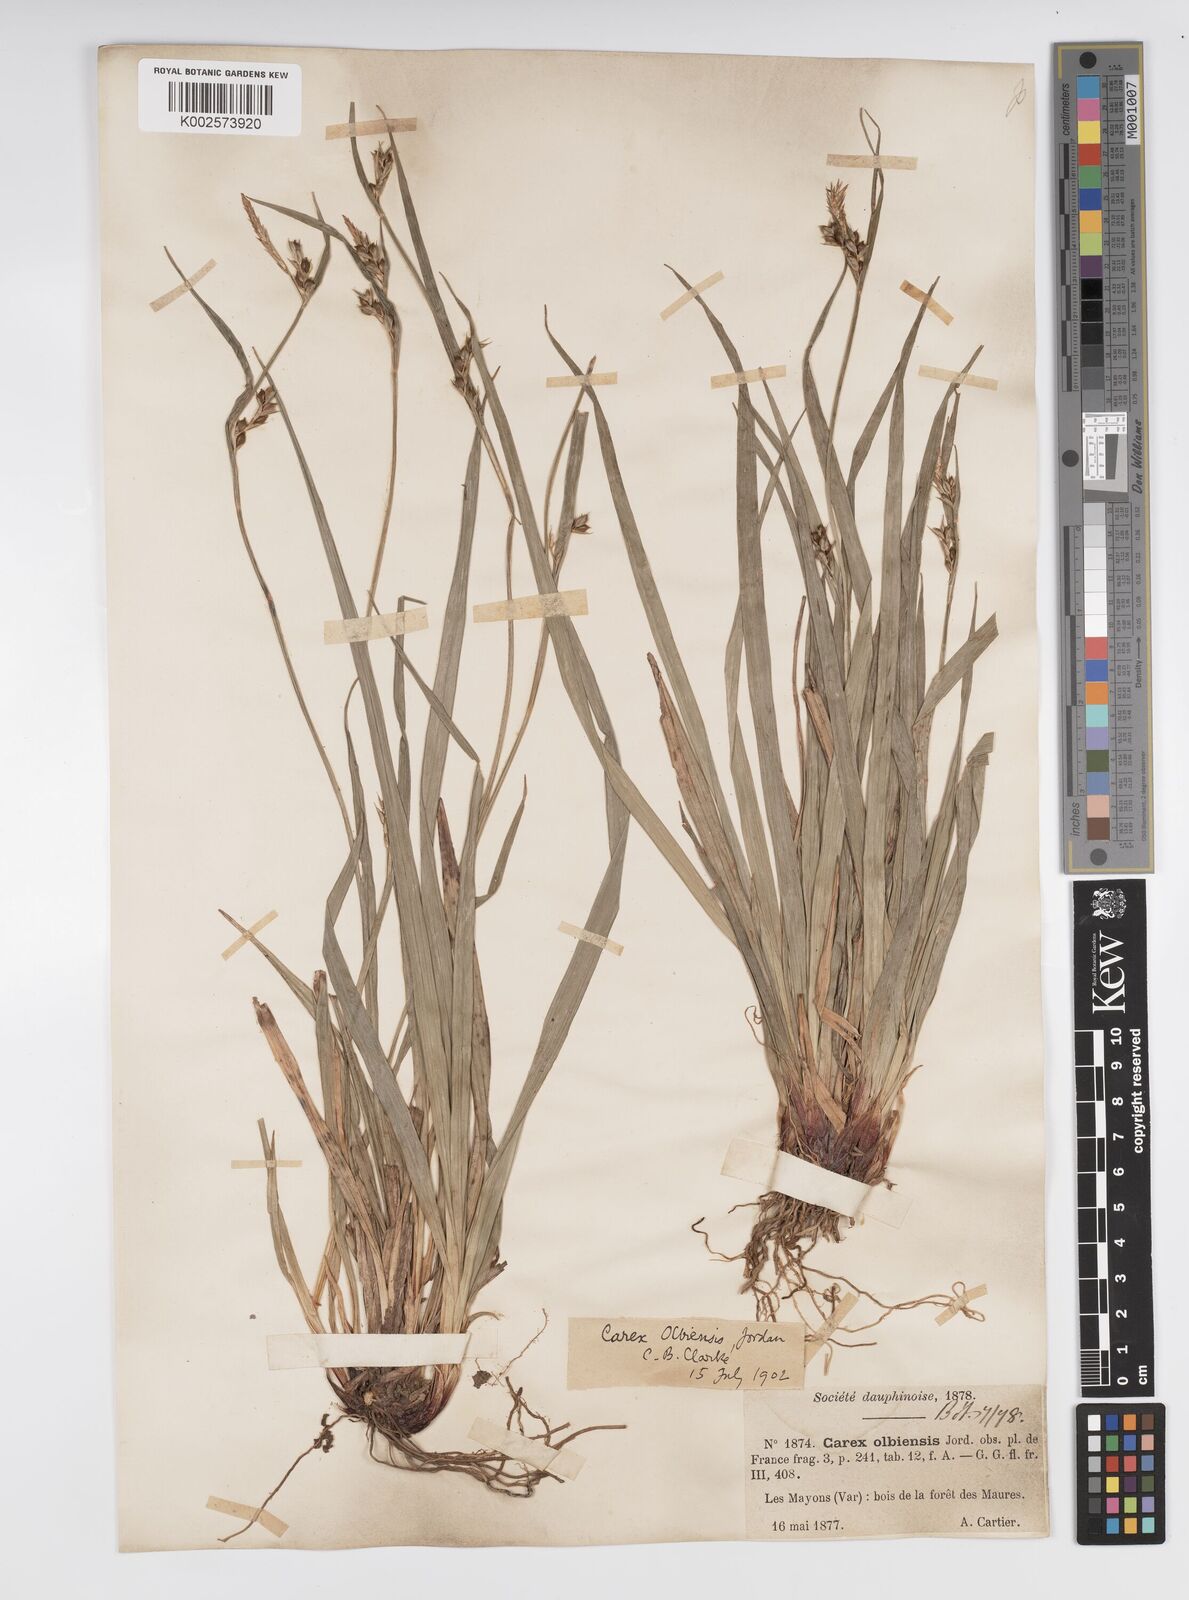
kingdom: Plantae
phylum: Tracheophyta
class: Liliopsida
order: Poales
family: Cyperaceae
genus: Carex
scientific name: Carex olbiensis
